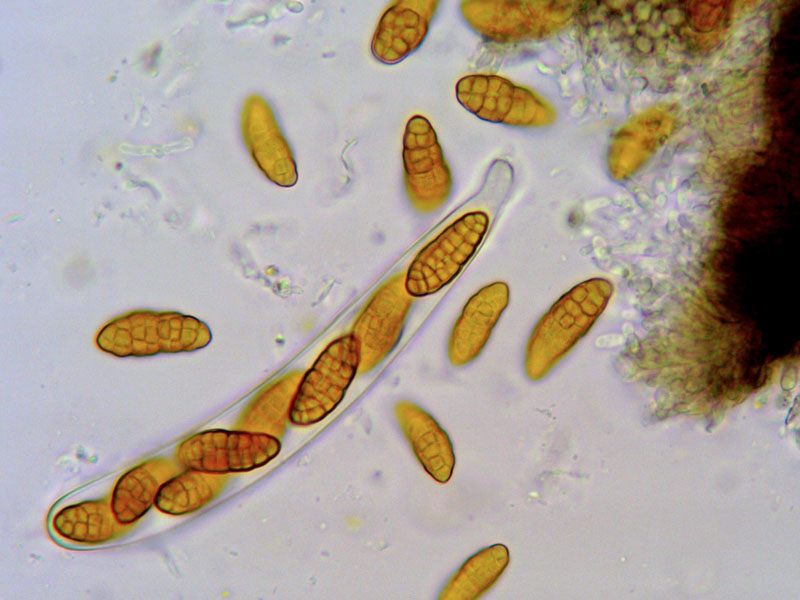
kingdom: Fungi
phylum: Ascomycota
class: Dothideomycetes
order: Pleosporales
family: Pleosporaceae
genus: Pleospora
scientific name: Pleospora rubelloides
